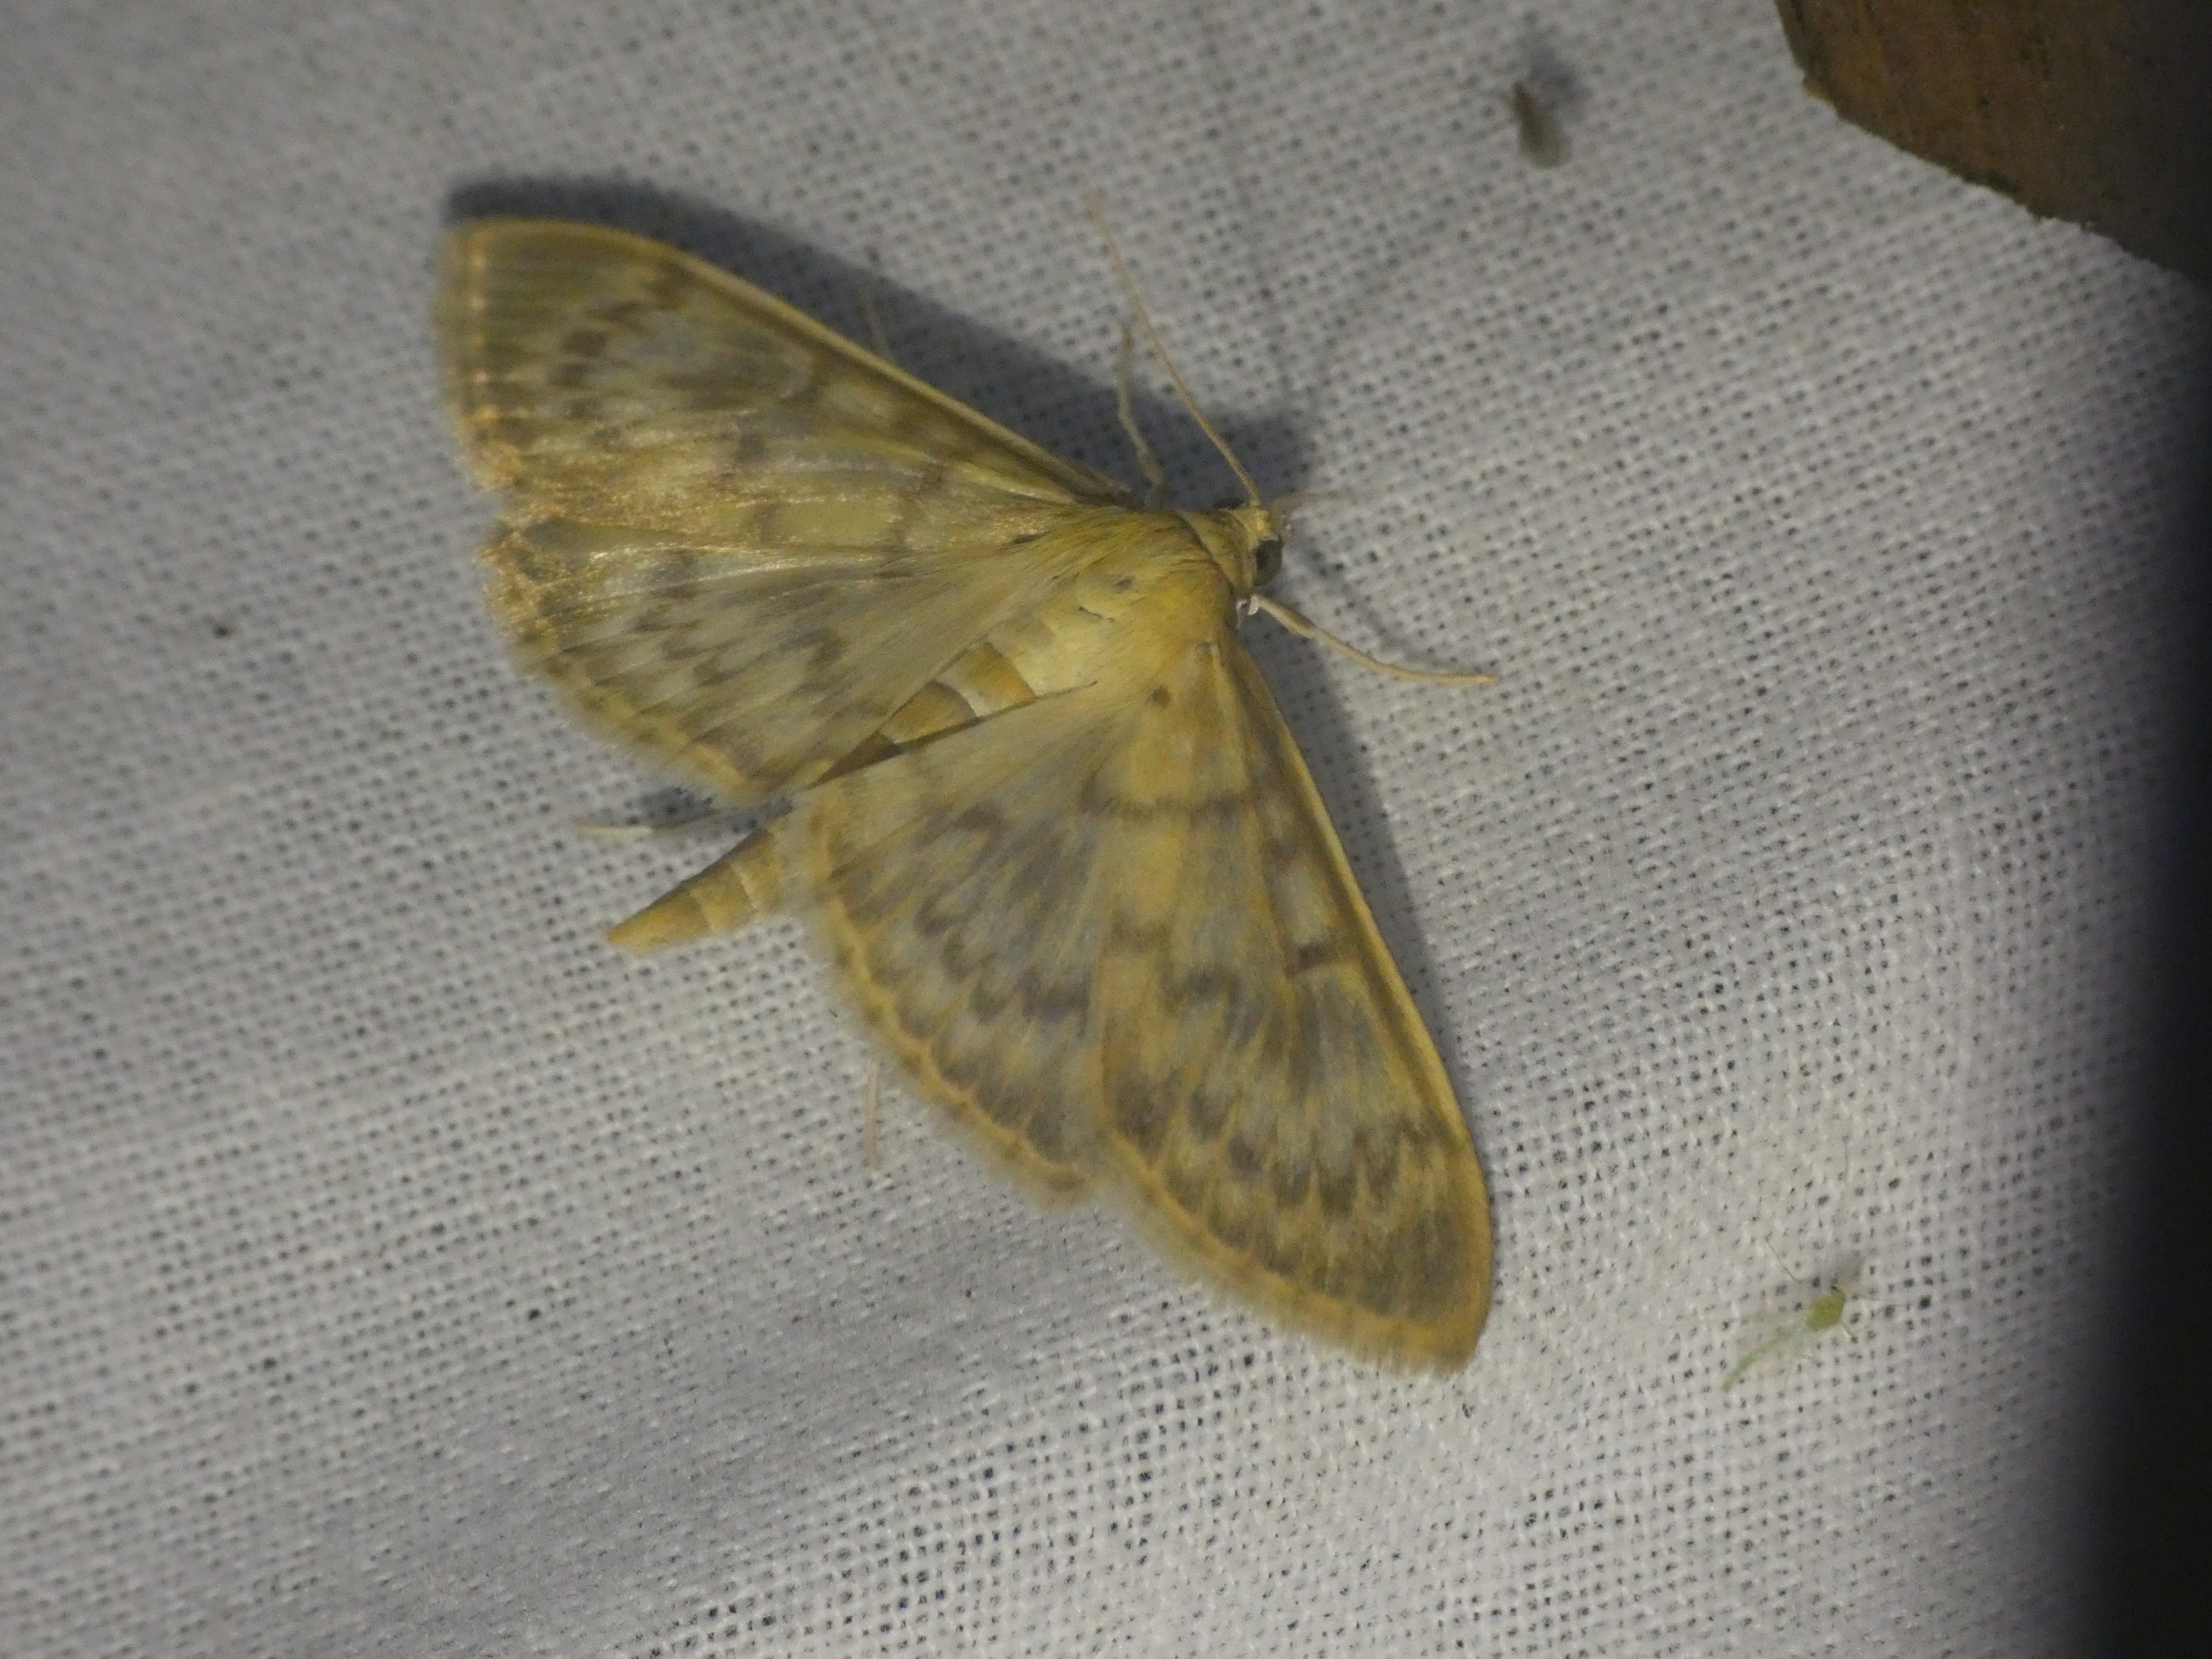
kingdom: Animalia
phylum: Arthropoda
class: Insecta
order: Lepidoptera
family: Crambidae
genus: Patania
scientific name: Patania ruralis
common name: Perlemorshalvmøl
